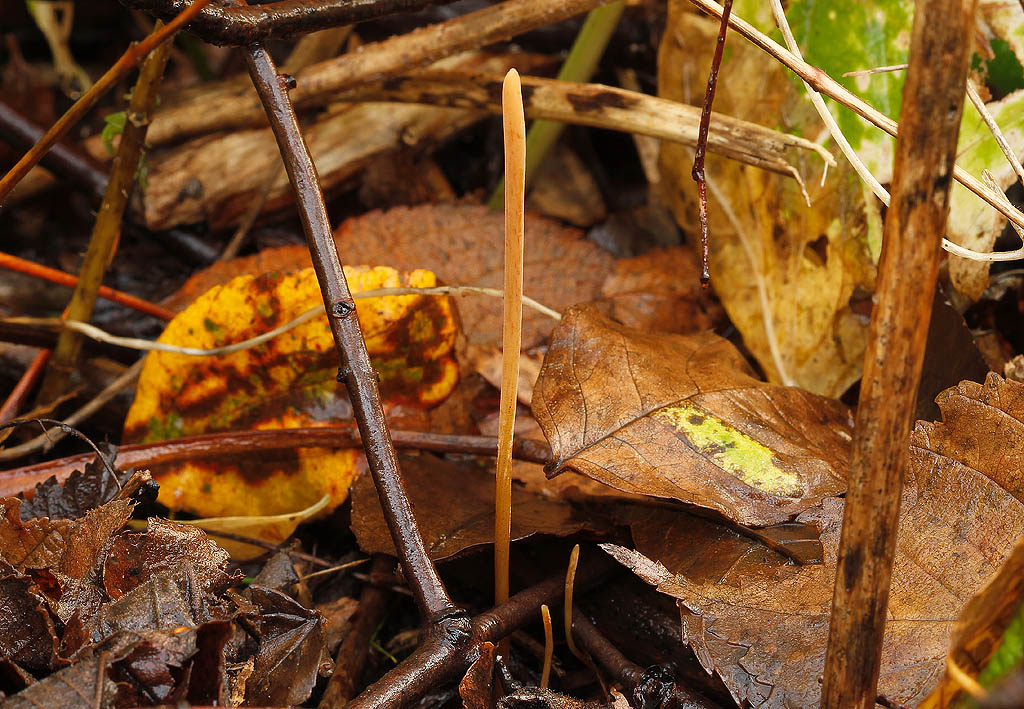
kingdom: Fungi
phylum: Basidiomycota
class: Agaricomycetes
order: Agaricales
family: Typhulaceae
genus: Typhula
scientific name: Typhula fistulosa
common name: pibet rørkølle
